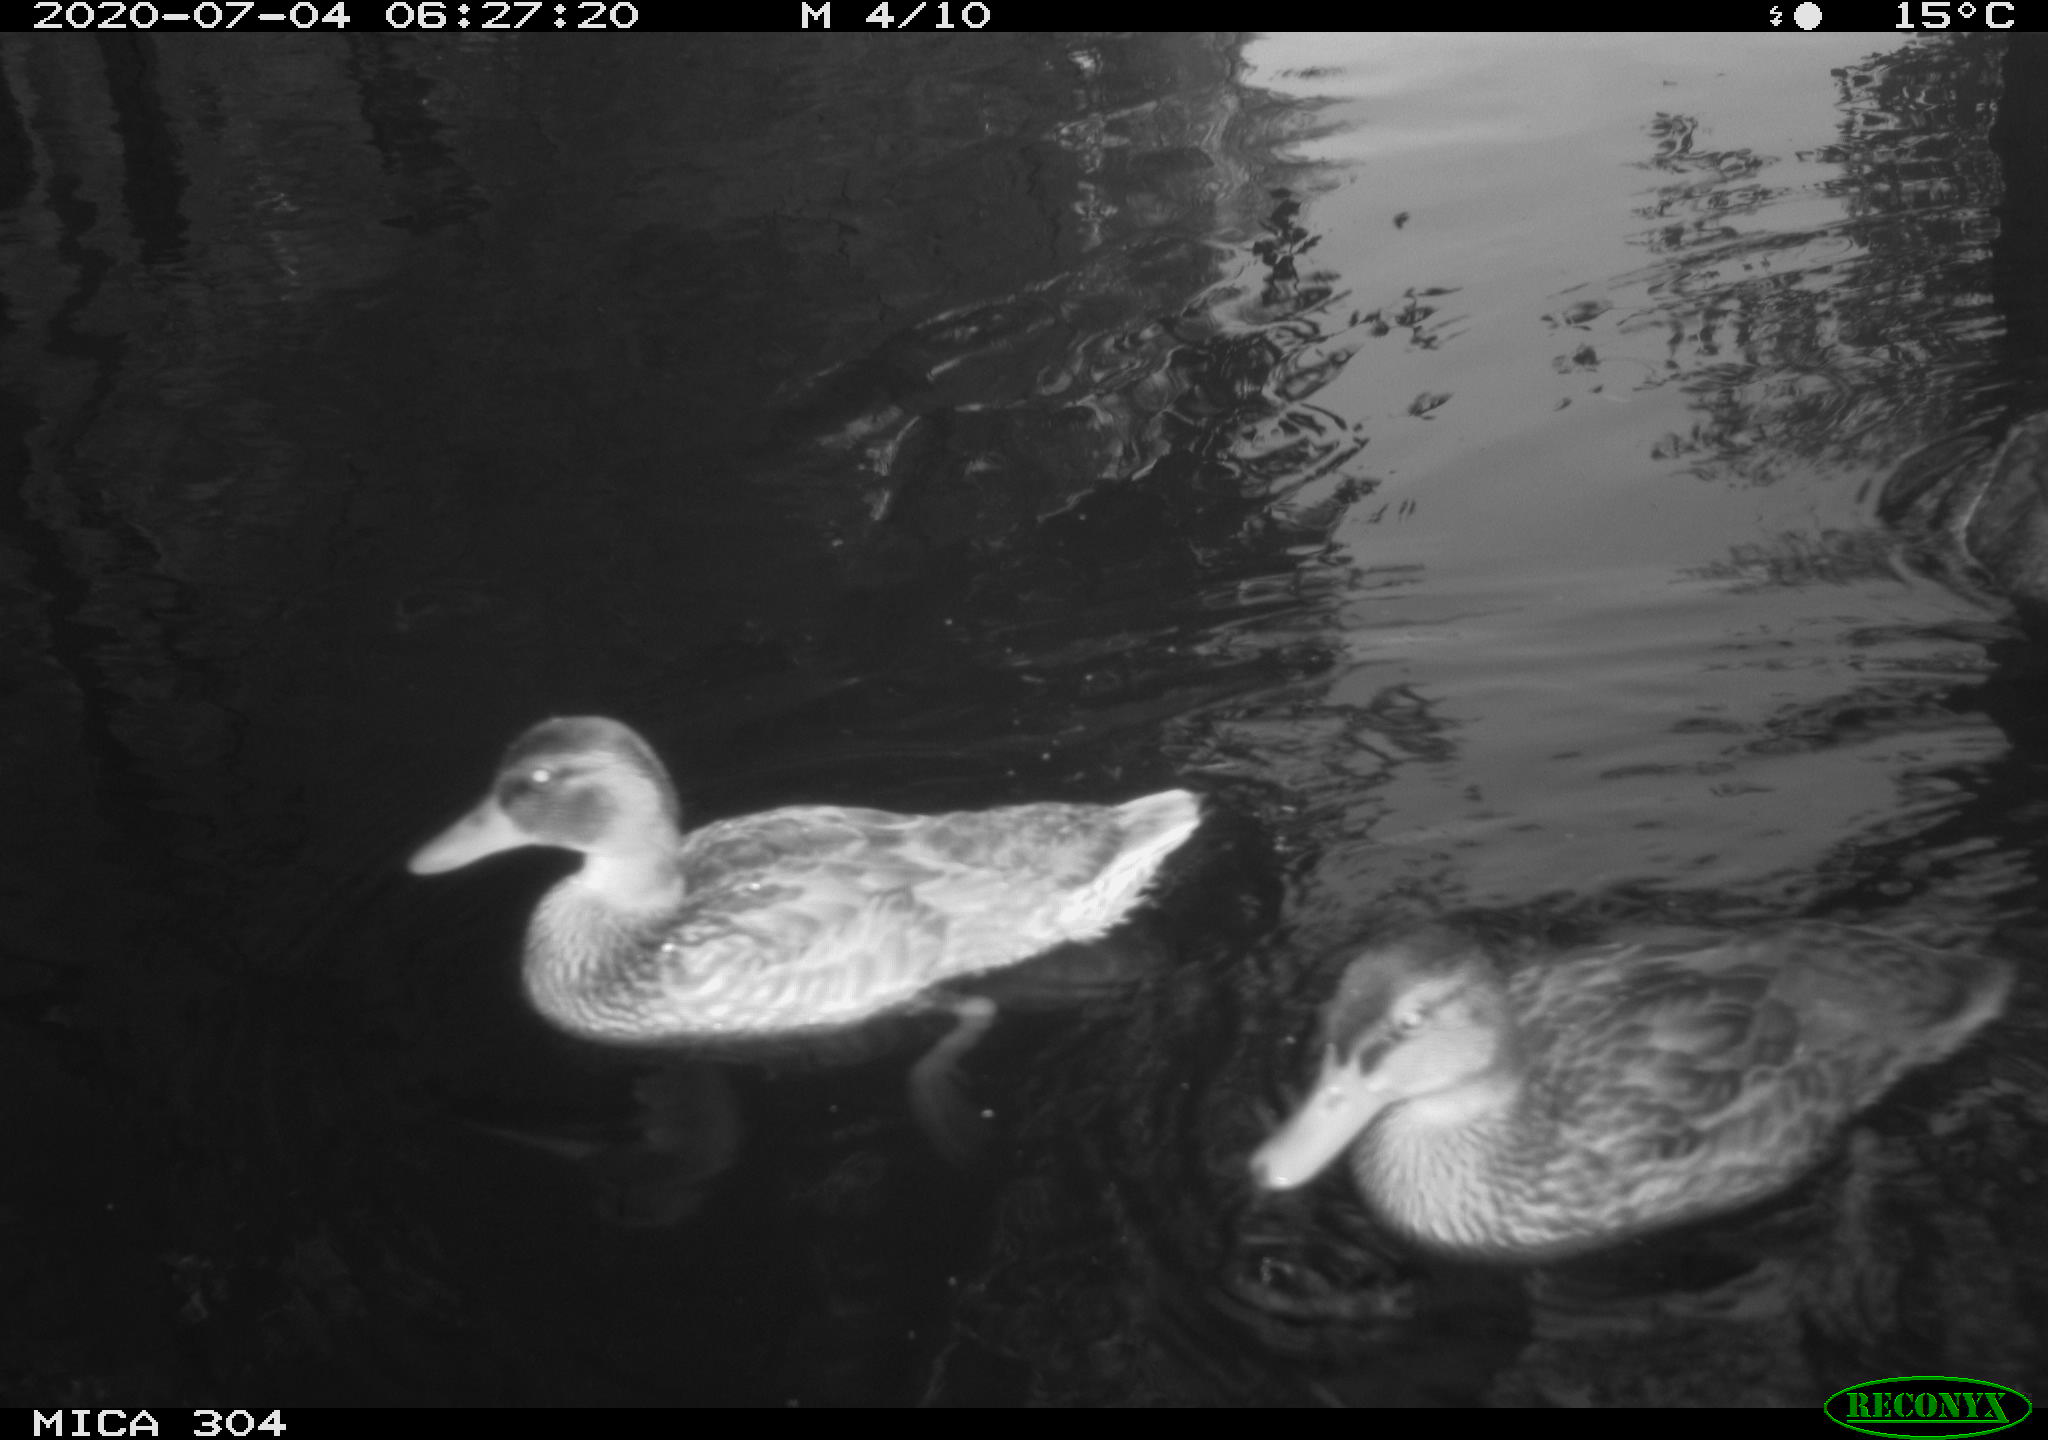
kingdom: Animalia
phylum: Chordata
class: Aves
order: Anseriformes
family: Anatidae
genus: Anas
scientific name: Anas platyrhynchos
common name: Mallard
